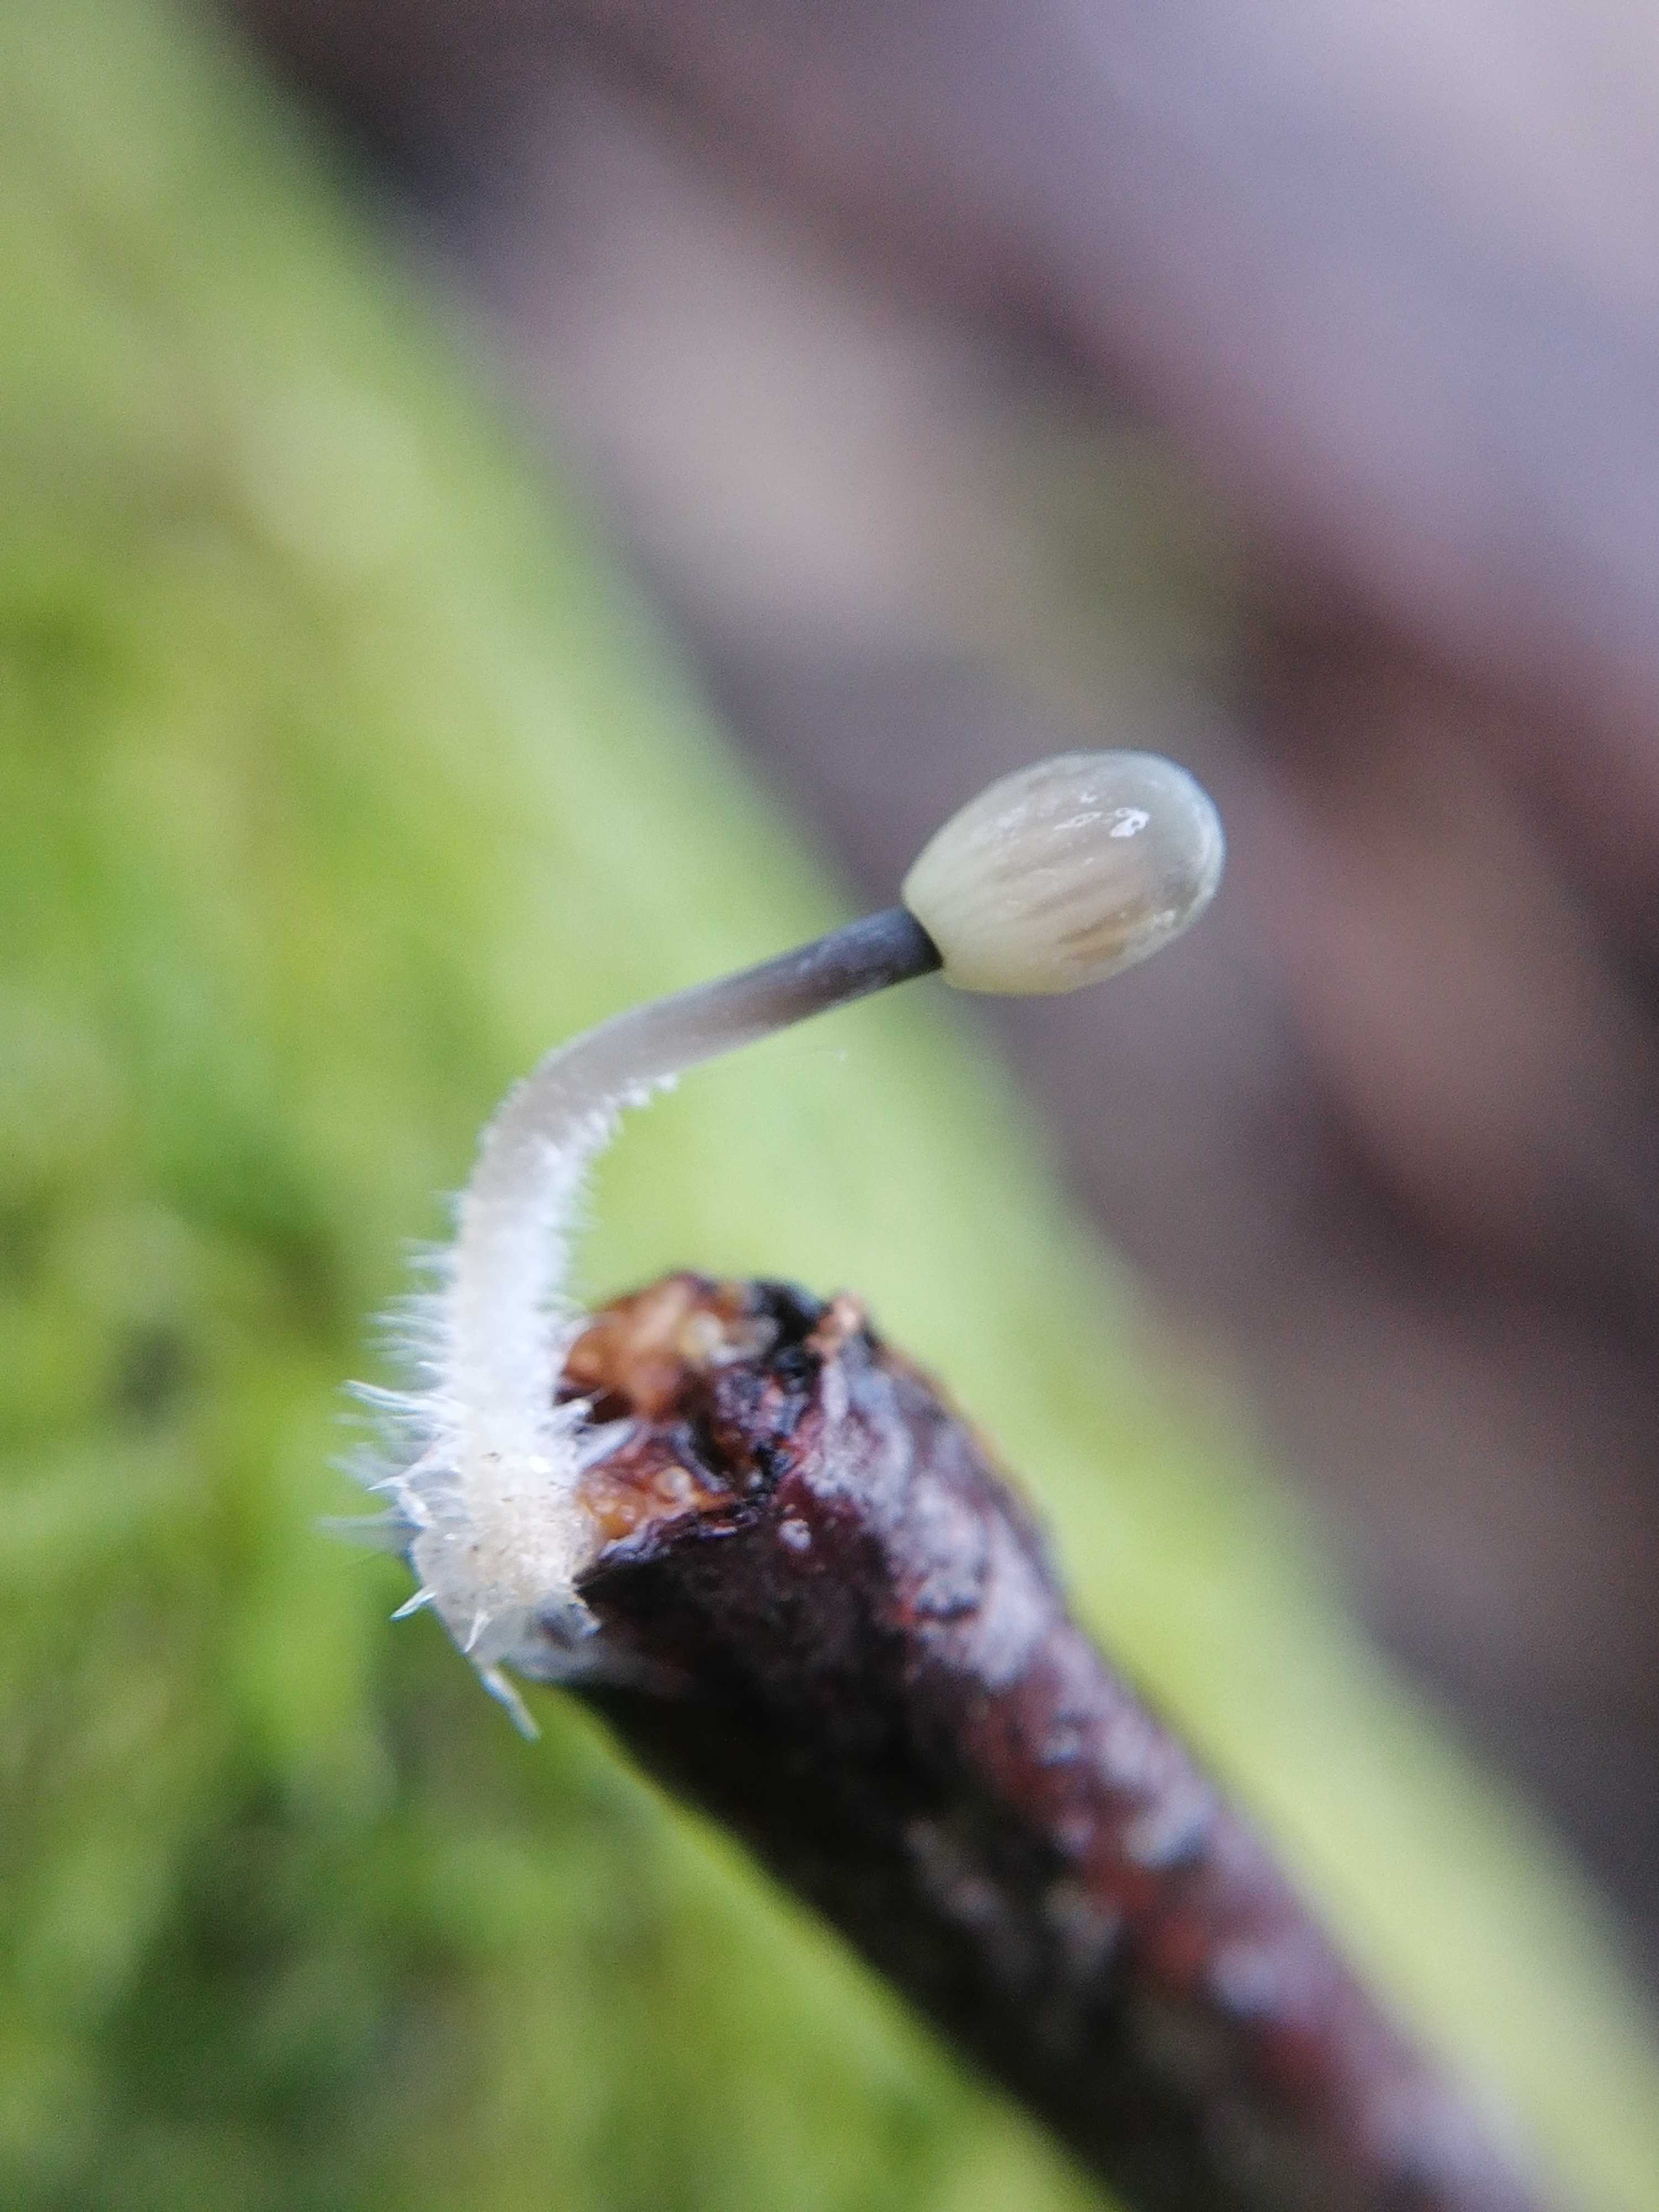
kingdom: Fungi
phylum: Basidiomycota
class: Agaricomycetes
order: Agaricales
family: Mycenaceae
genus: Mycena
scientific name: Mycena arcangeliana
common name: oliven-huesvamp
